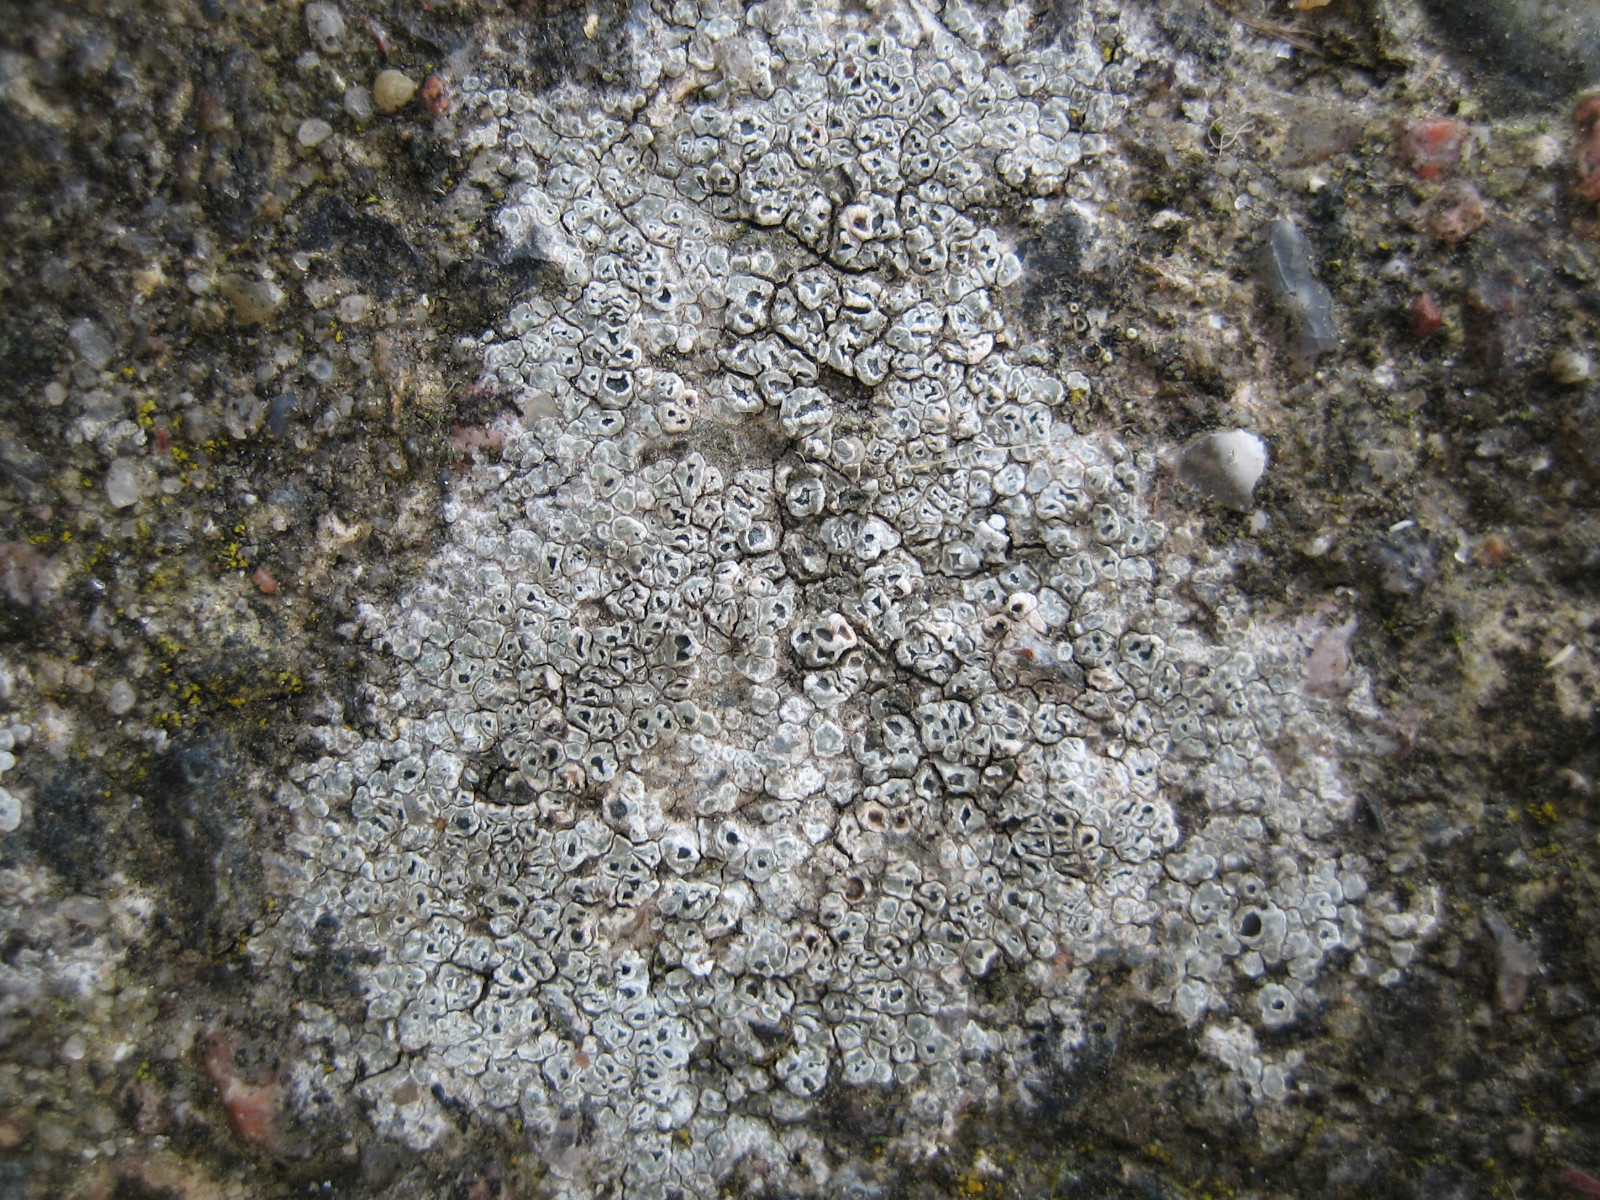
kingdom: Fungi
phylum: Ascomycota
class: Lecanoromycetes
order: Pertusariales
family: Megasporaceae
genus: Circinaria
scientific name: Circinaria contorta
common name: indviklet hulskivelav
